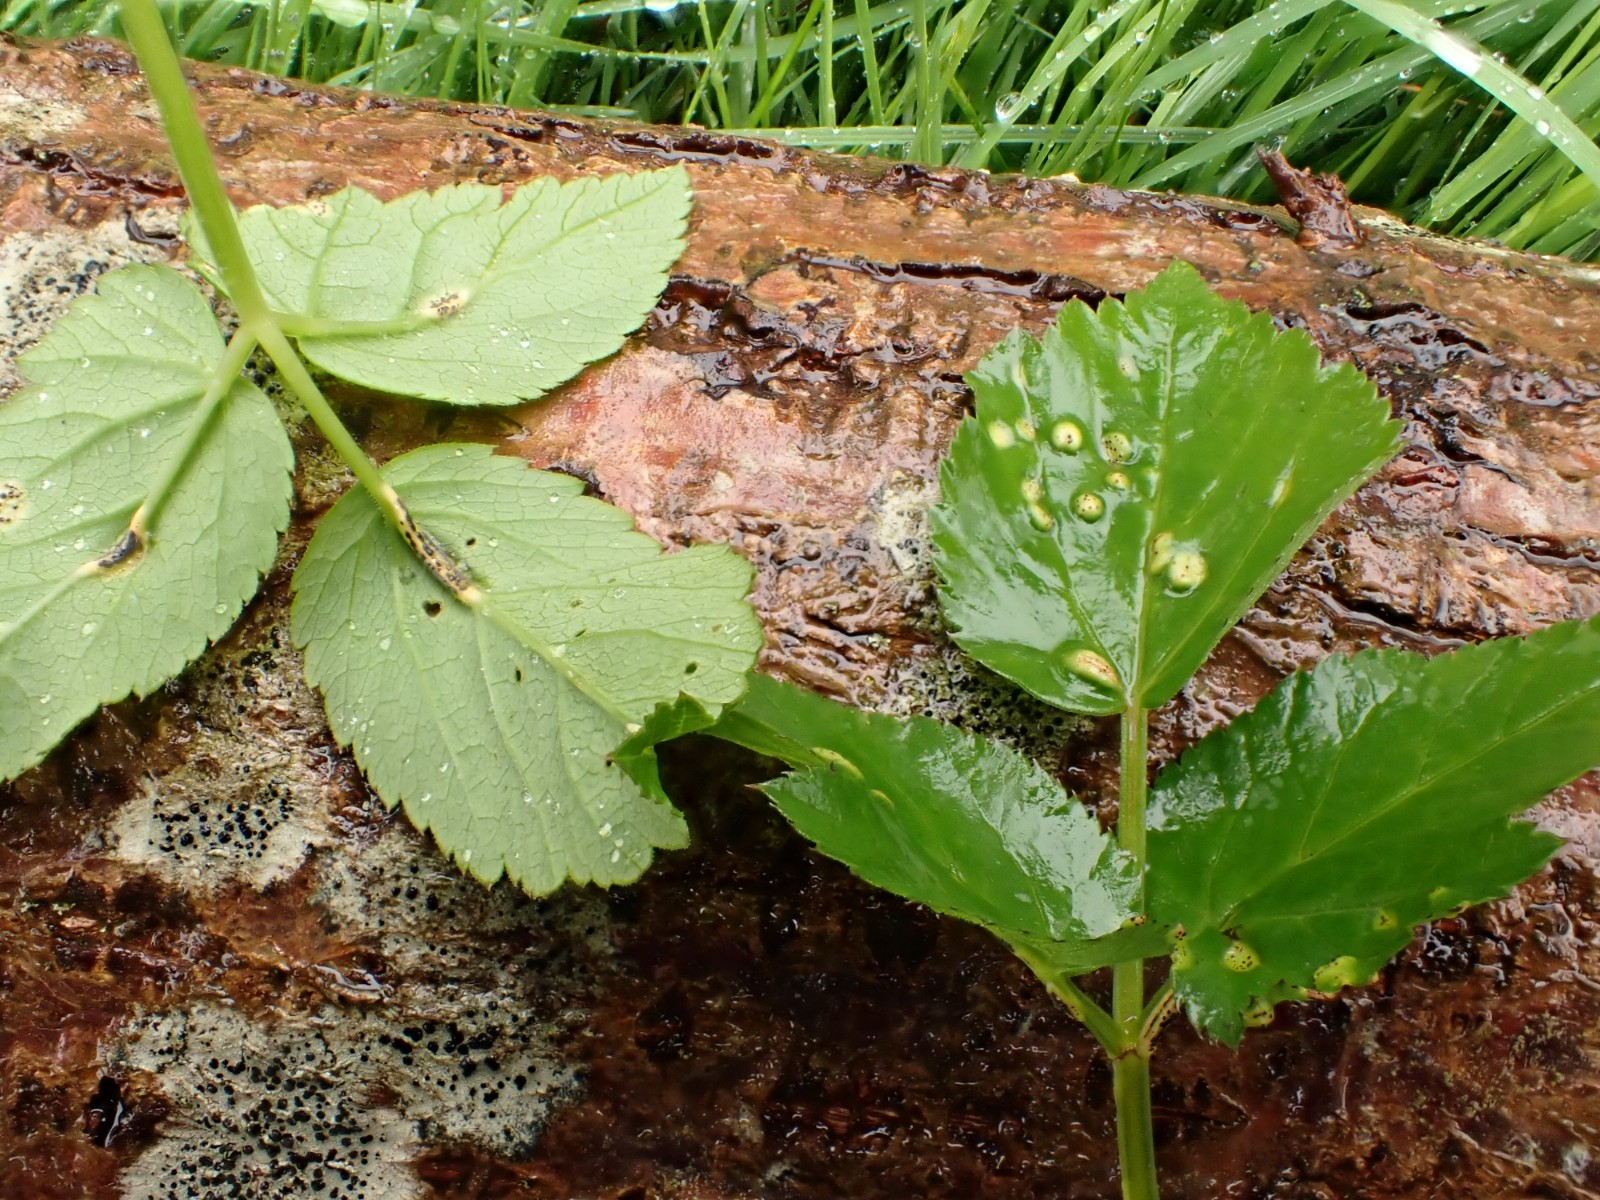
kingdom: Fungi
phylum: Basidiomycota
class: Pucciniomycetes
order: Pucciniales
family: Pucciniaceae
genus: Puccinia
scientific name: Puccinia
